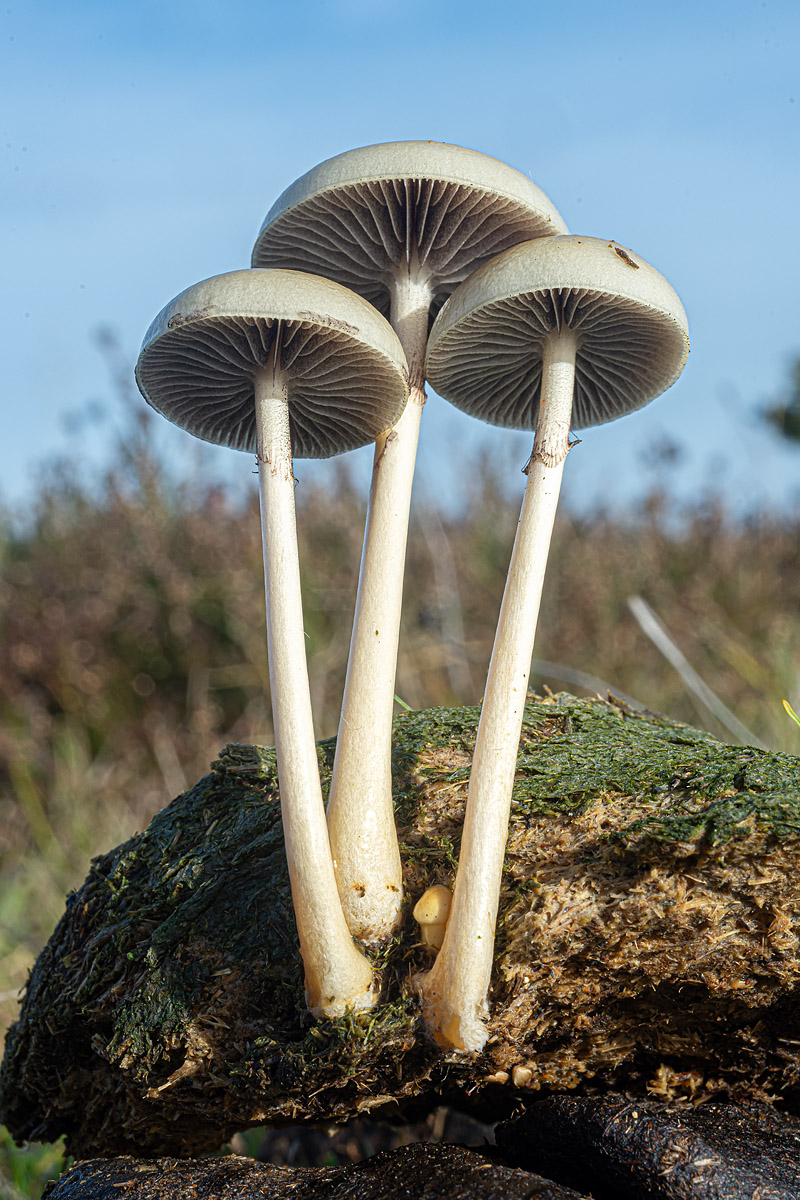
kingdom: Fungi
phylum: Basidiomycota
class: Agaricomycetes
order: Agaricales
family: Strophariaceae
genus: Protostropharia
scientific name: Protostropharia semiglobata
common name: halvkugleformet bredblad
